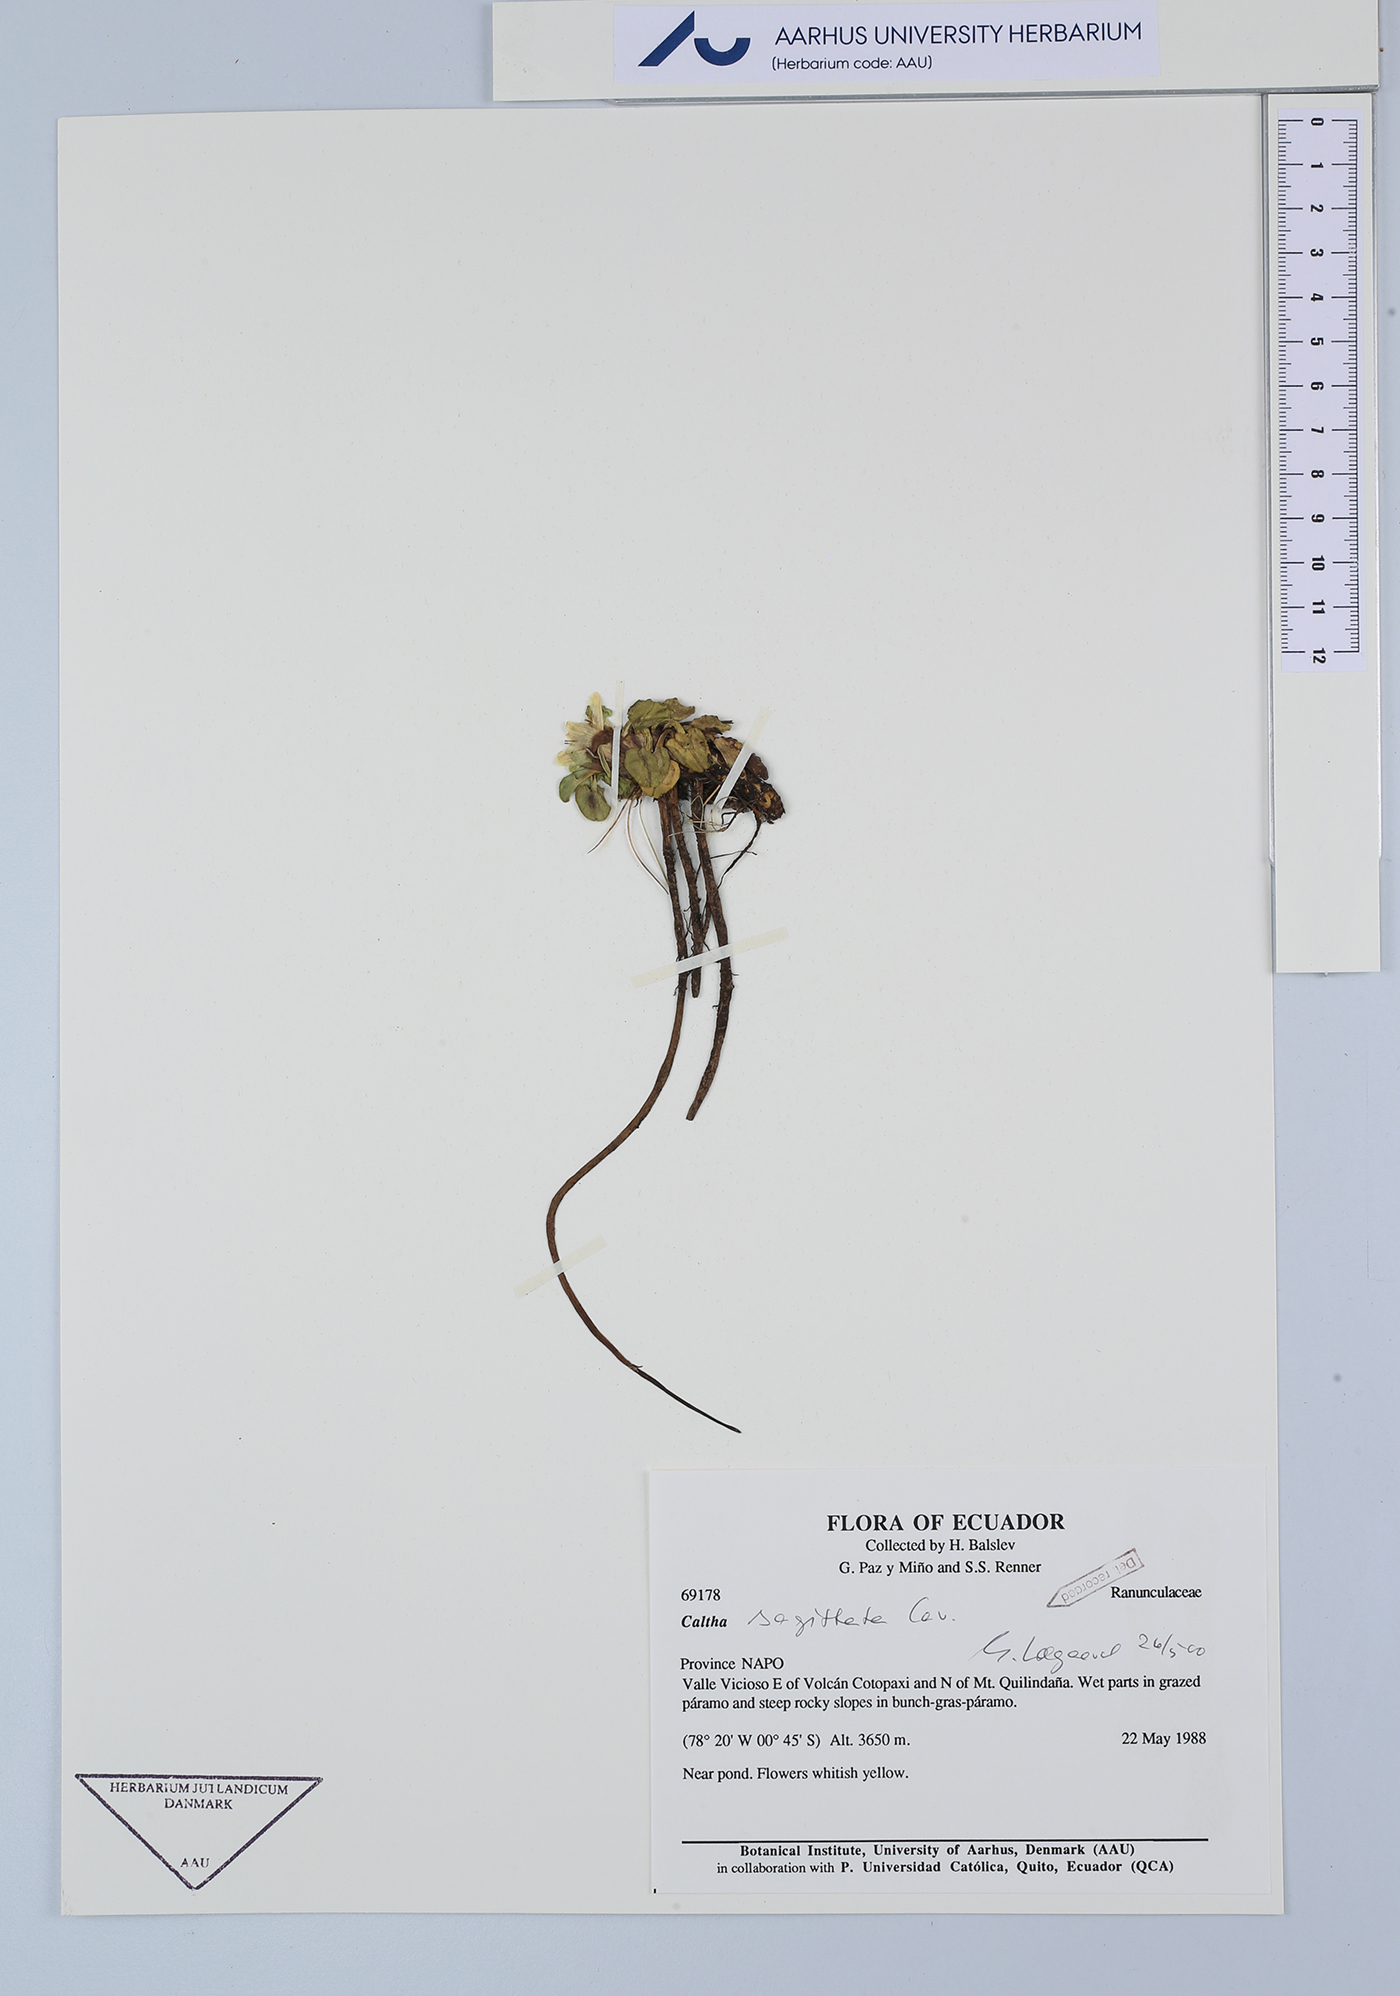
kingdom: Plantae
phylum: Tracheophyta
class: Magnoliopsida
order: Ranunculales
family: Ranunculaceae
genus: Caltha
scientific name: Caltha sagittata
